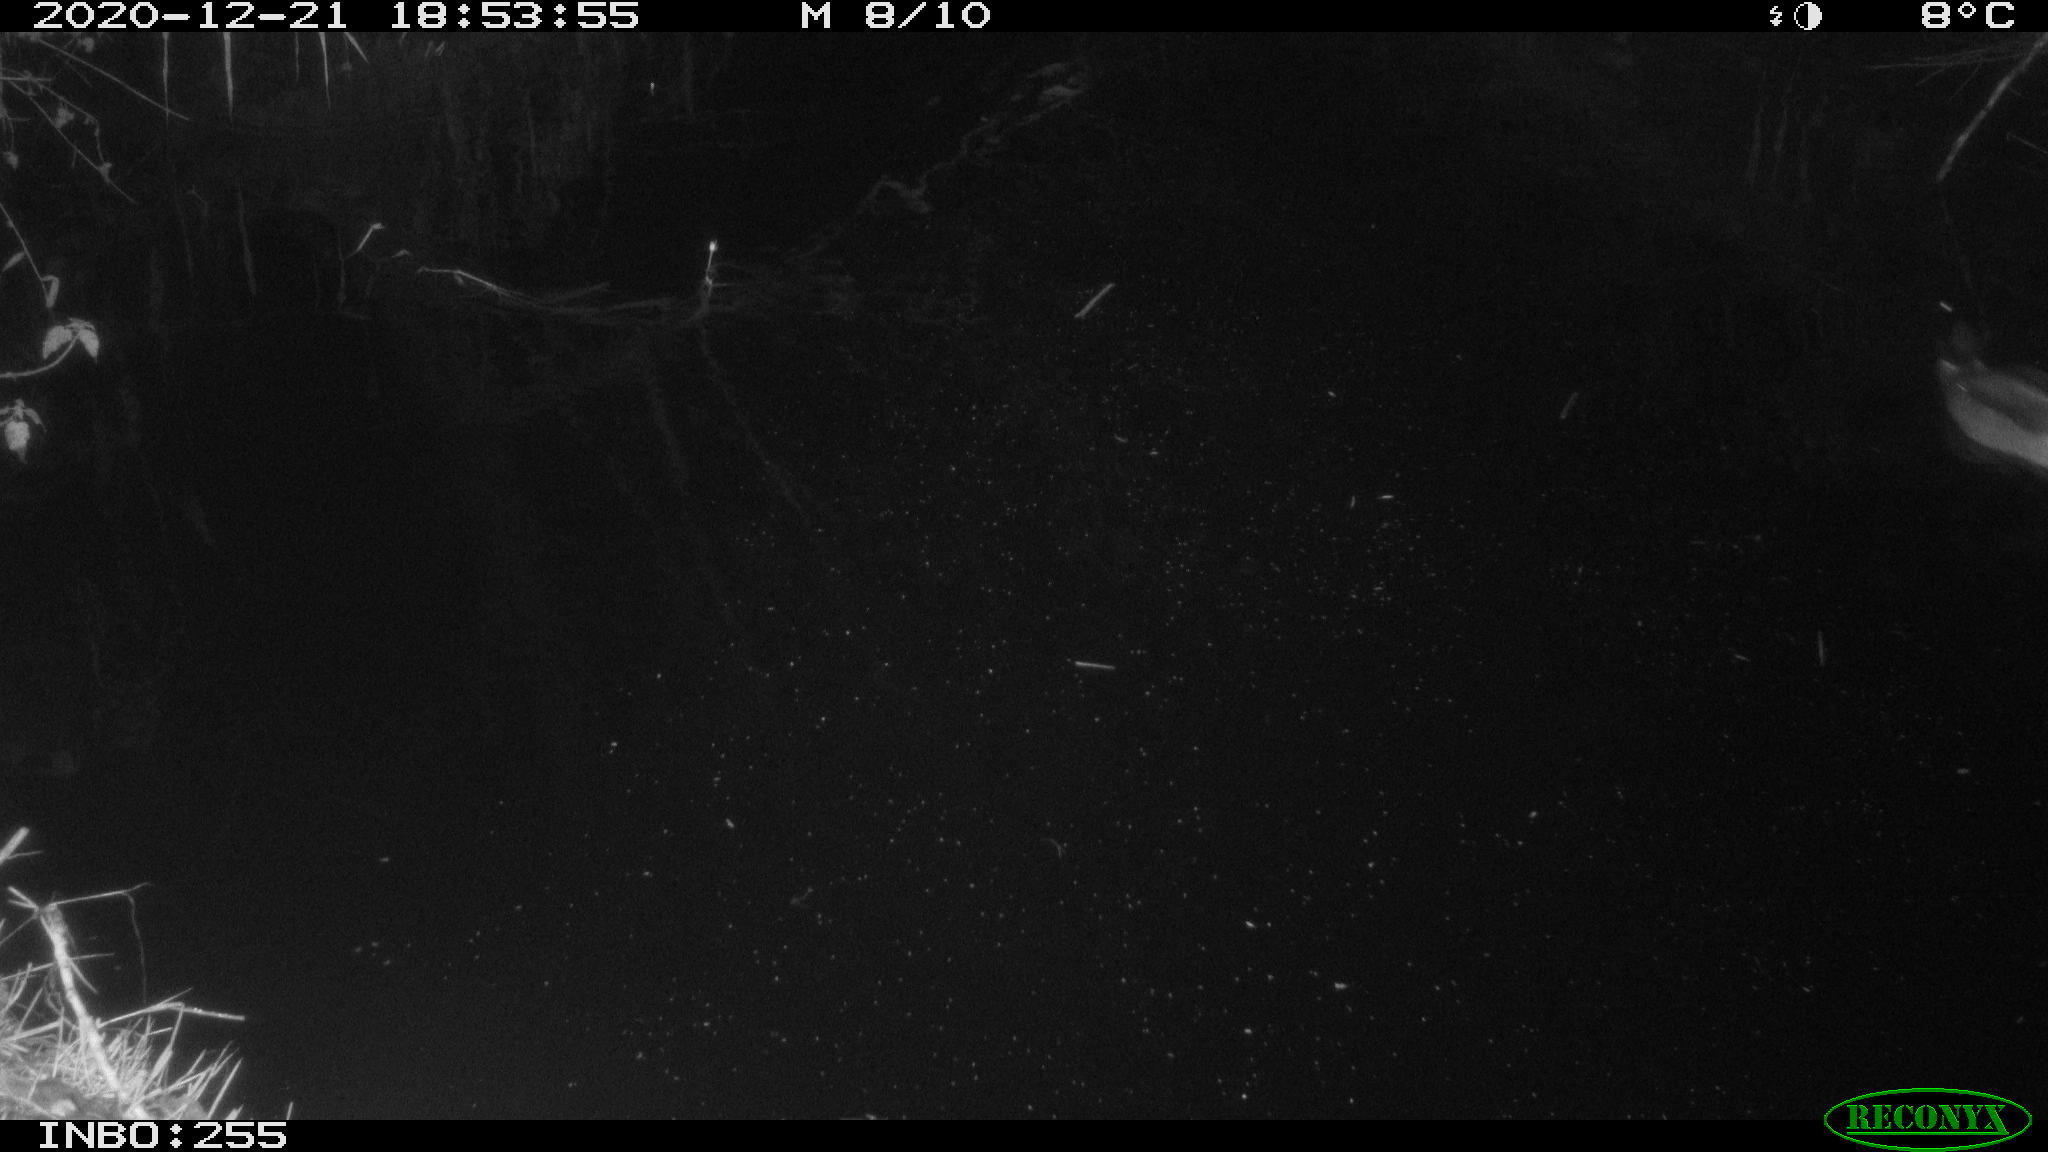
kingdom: Animalia
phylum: Chordata
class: Aves
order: Anseriformes
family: Anatidae
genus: Anas
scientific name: Anas platyrhynchos
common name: Mallard
